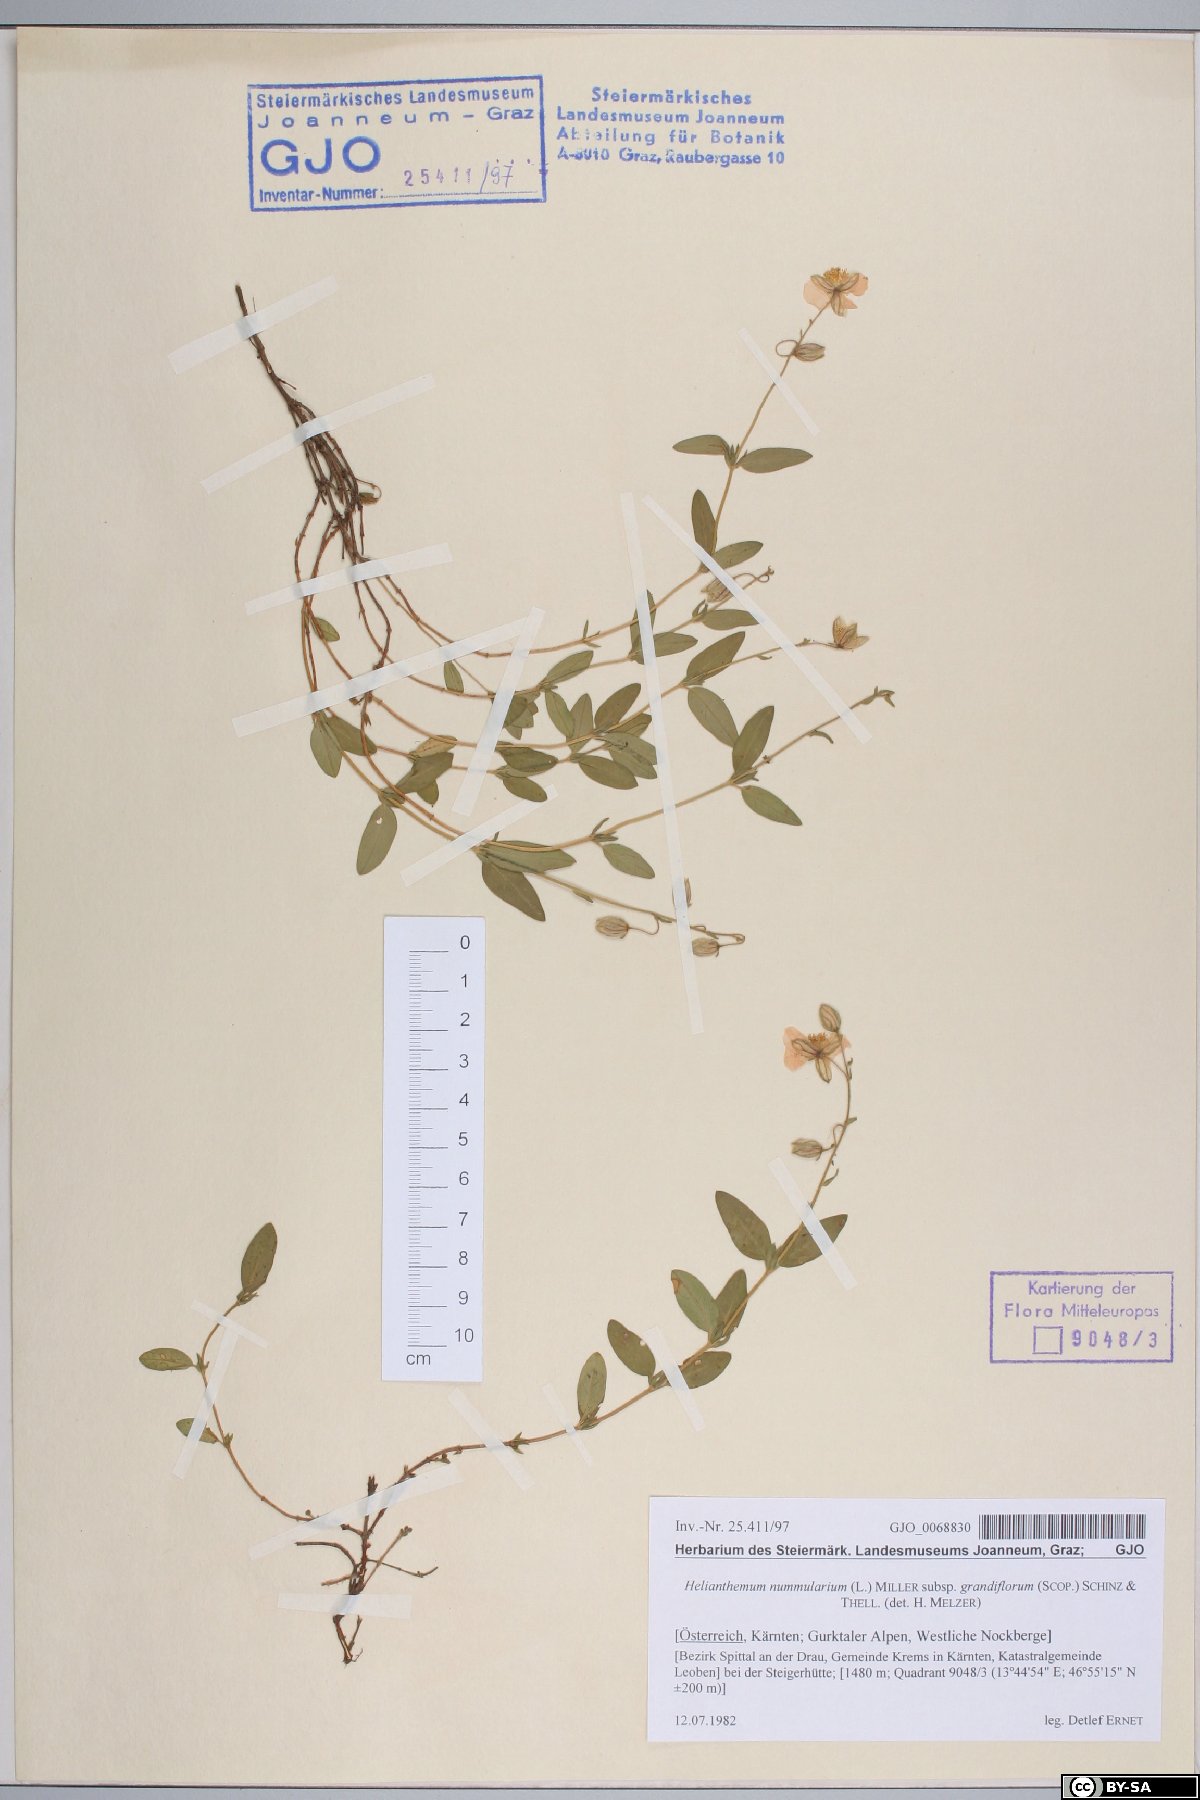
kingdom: Plantae
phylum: Tracheophyta
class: Magnoliopsida
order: Malvales
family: Cistaceae
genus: Helianthemum
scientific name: Helianthemum nummularium
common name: Common rock-rose
